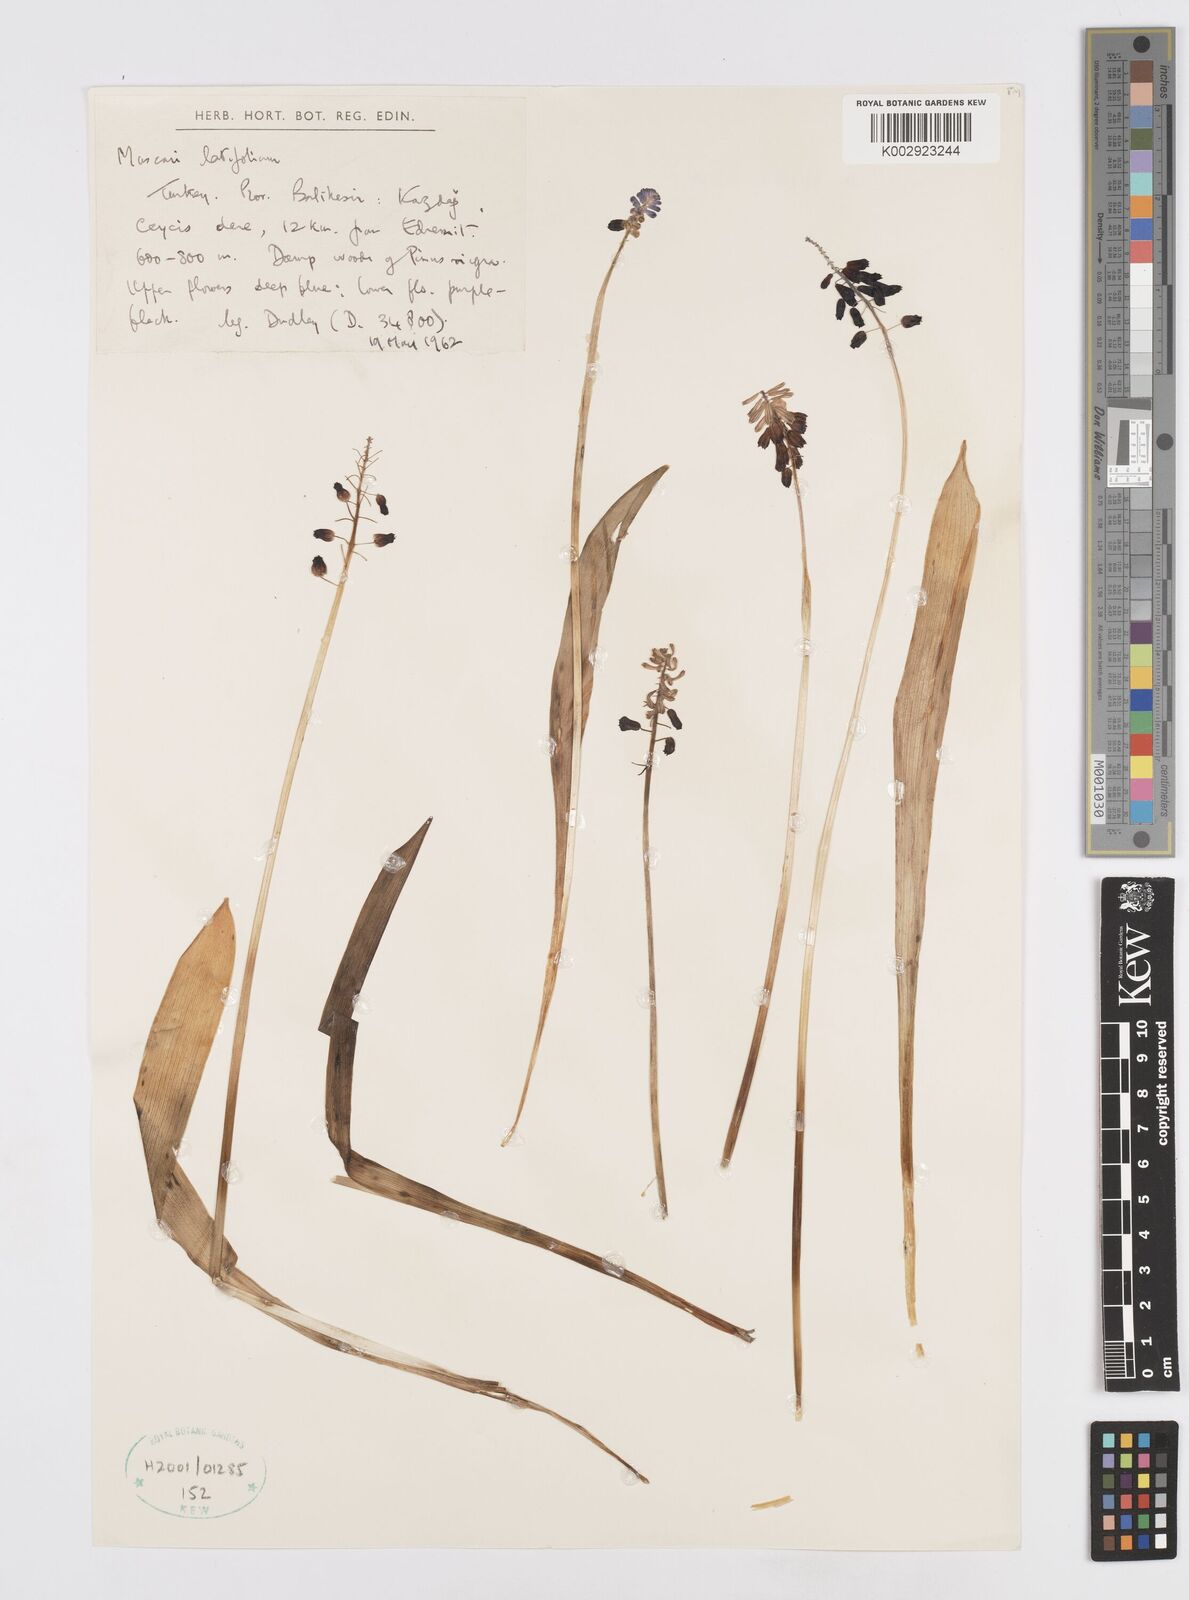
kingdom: Plantae
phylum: Tracheophyta
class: Liliopsida
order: Asparagales
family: Asparagaceae
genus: Muscari
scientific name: Muscari latifolium
